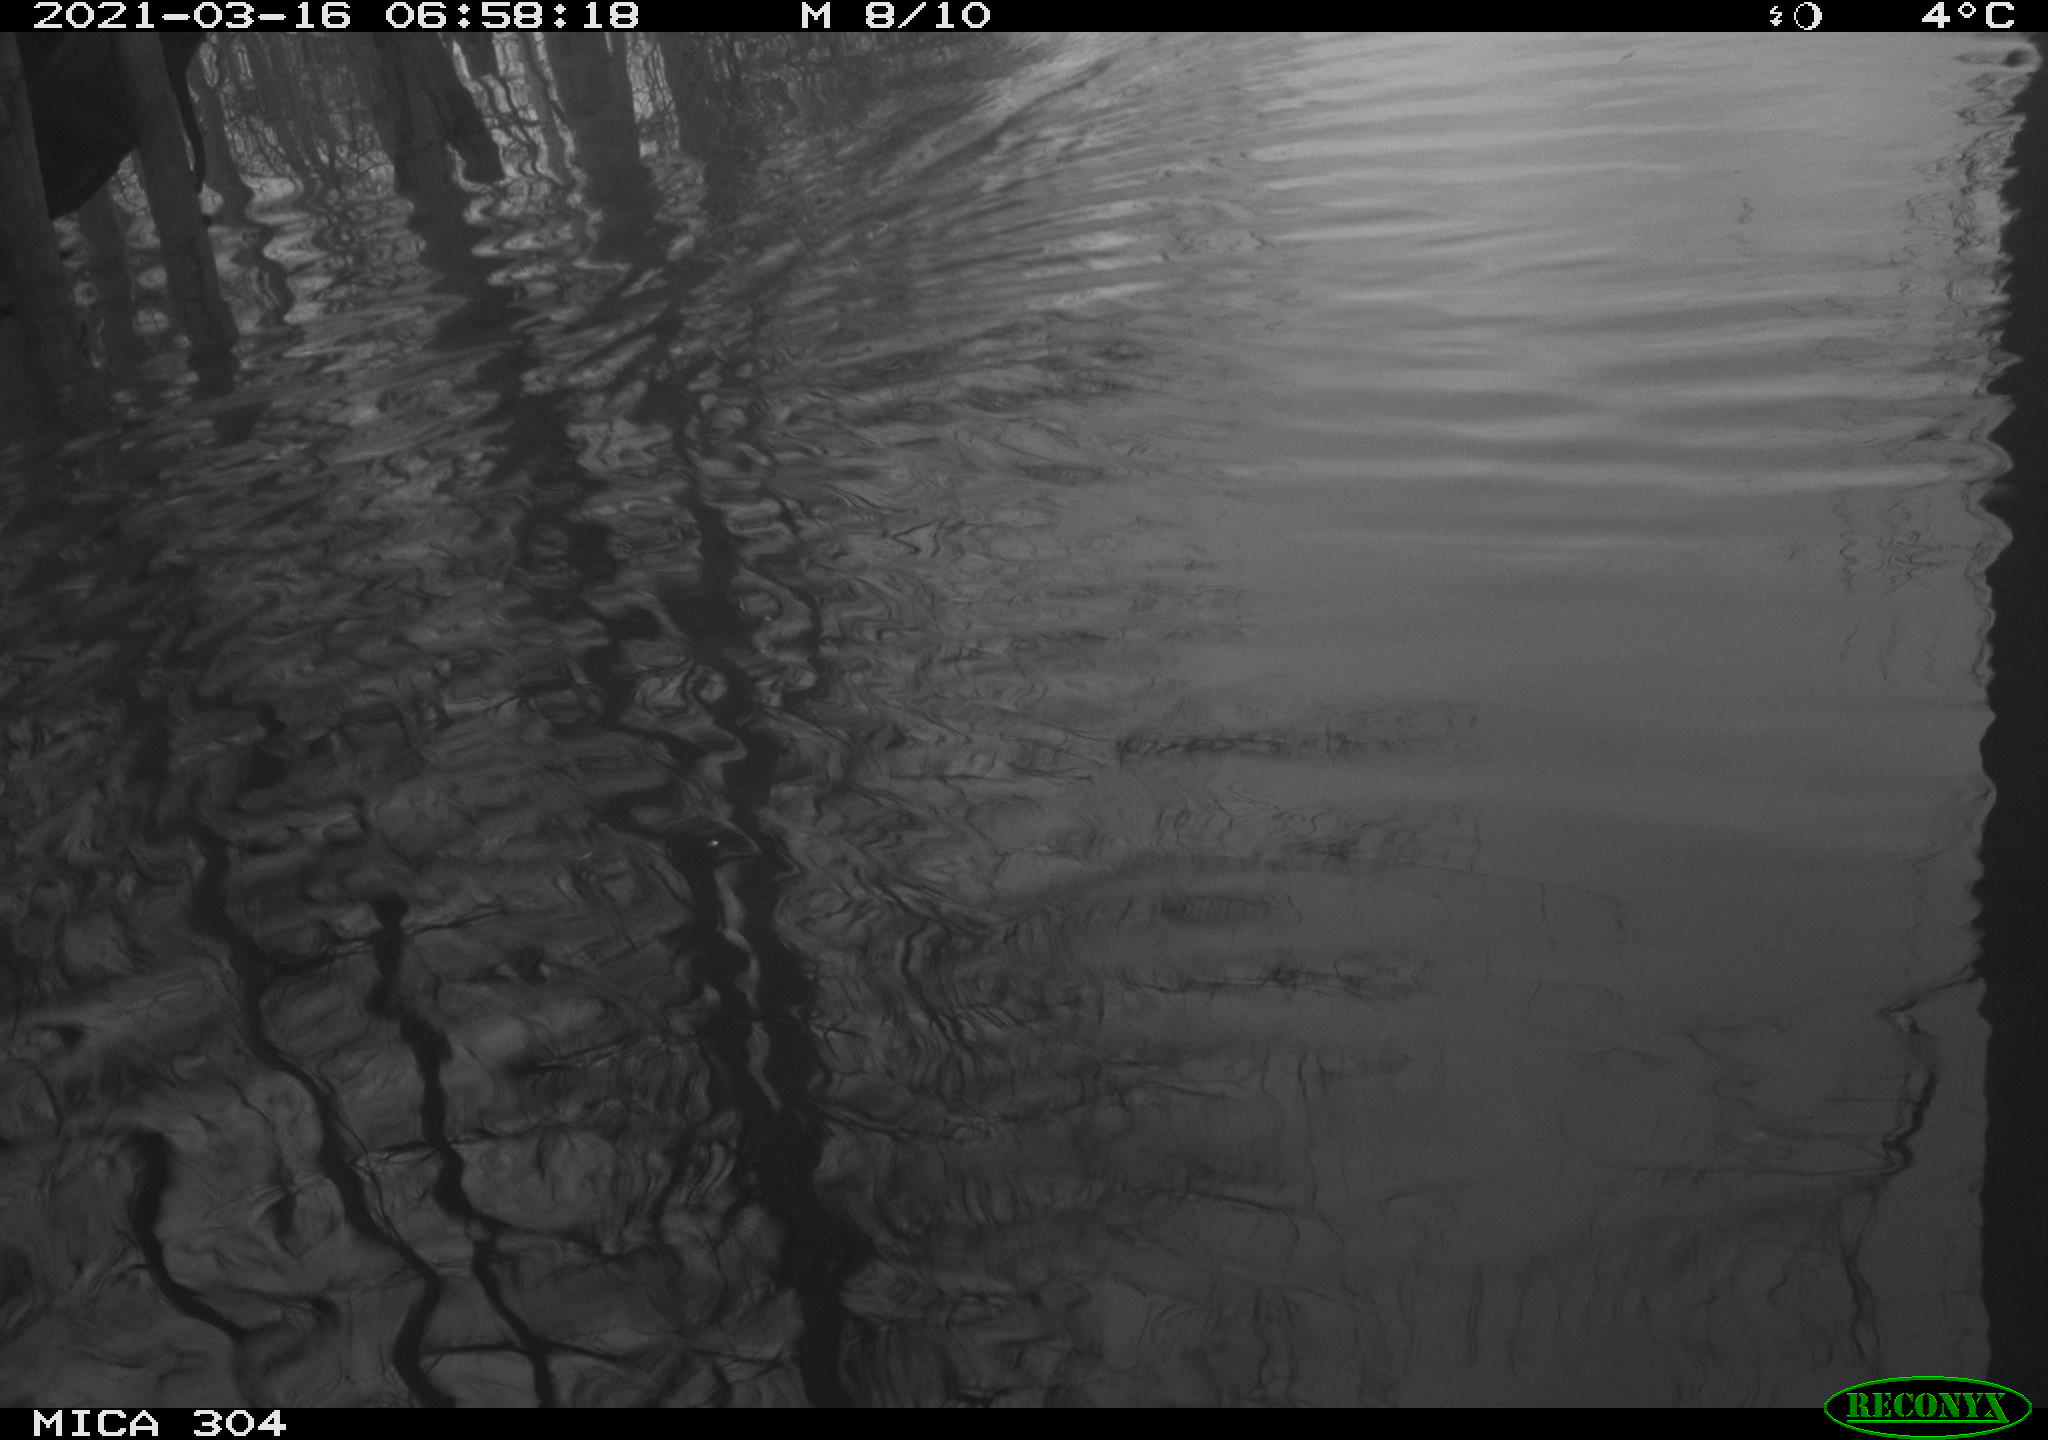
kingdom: Animalia
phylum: Chordata
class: Aves
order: Gruiformes
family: Rallidae
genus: Gallinula
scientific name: Gallinula chloropus
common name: Common moorhen
